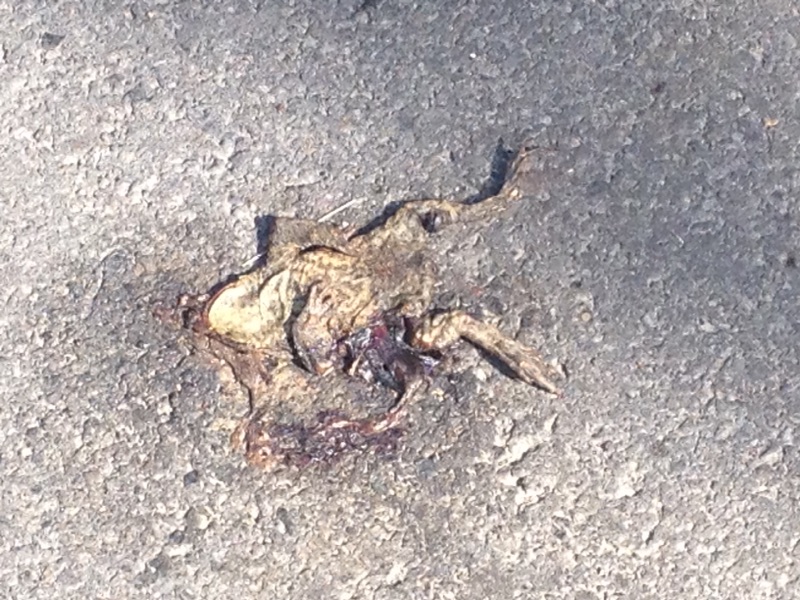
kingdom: Animalia
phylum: Chordata
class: Amphibia
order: Anura
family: Bufonidae
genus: Bufo
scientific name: Bufo bufo
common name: Common toad
